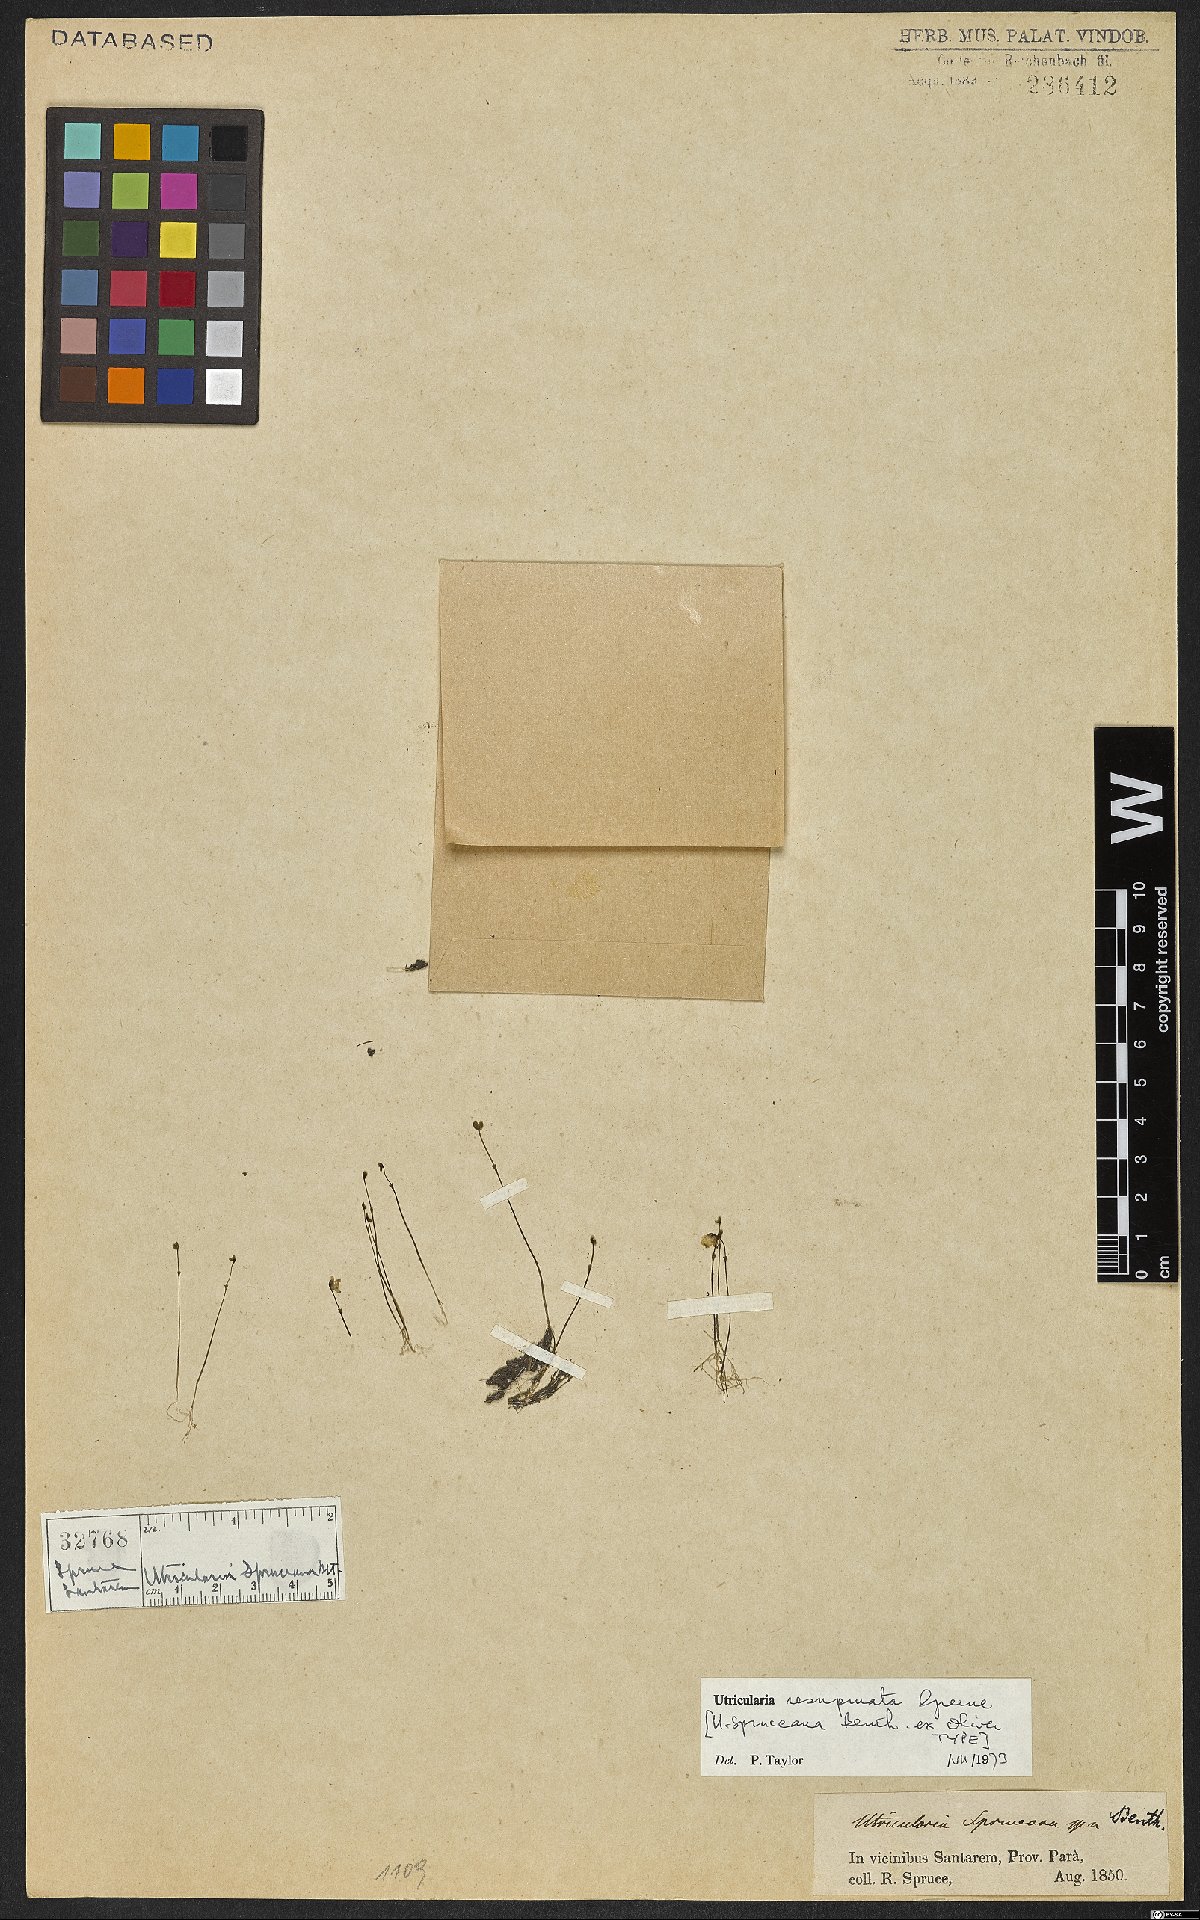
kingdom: Plantae
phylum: Tracheophyta
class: Magnoliopsida
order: Lamiales
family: Lentibulariaceae
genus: Utricularia
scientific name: Utricularia resupinata
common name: Northeastern bladderwort
